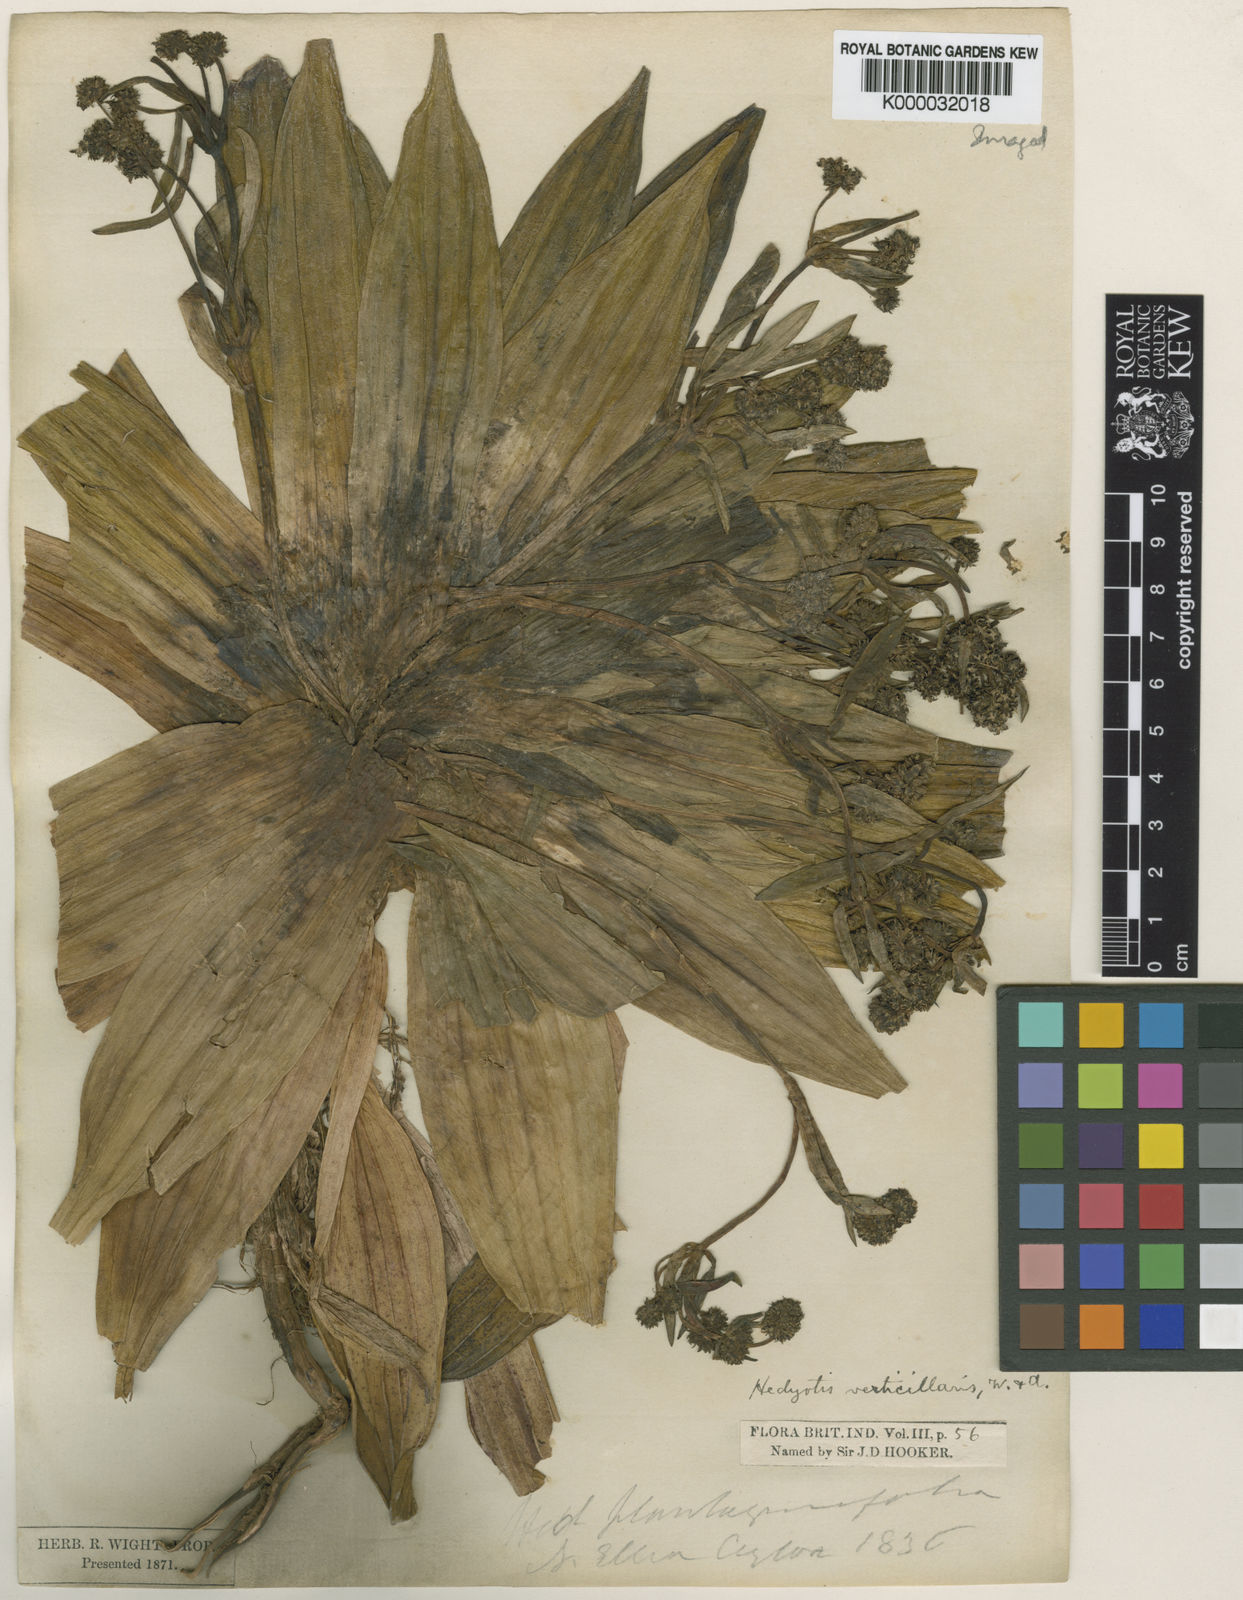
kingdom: Plantae
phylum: Tracheophyta
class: Magnoliopsida
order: Gentianales
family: Rubiaceae
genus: Hedyotis
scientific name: Hedyotis verticillaris
